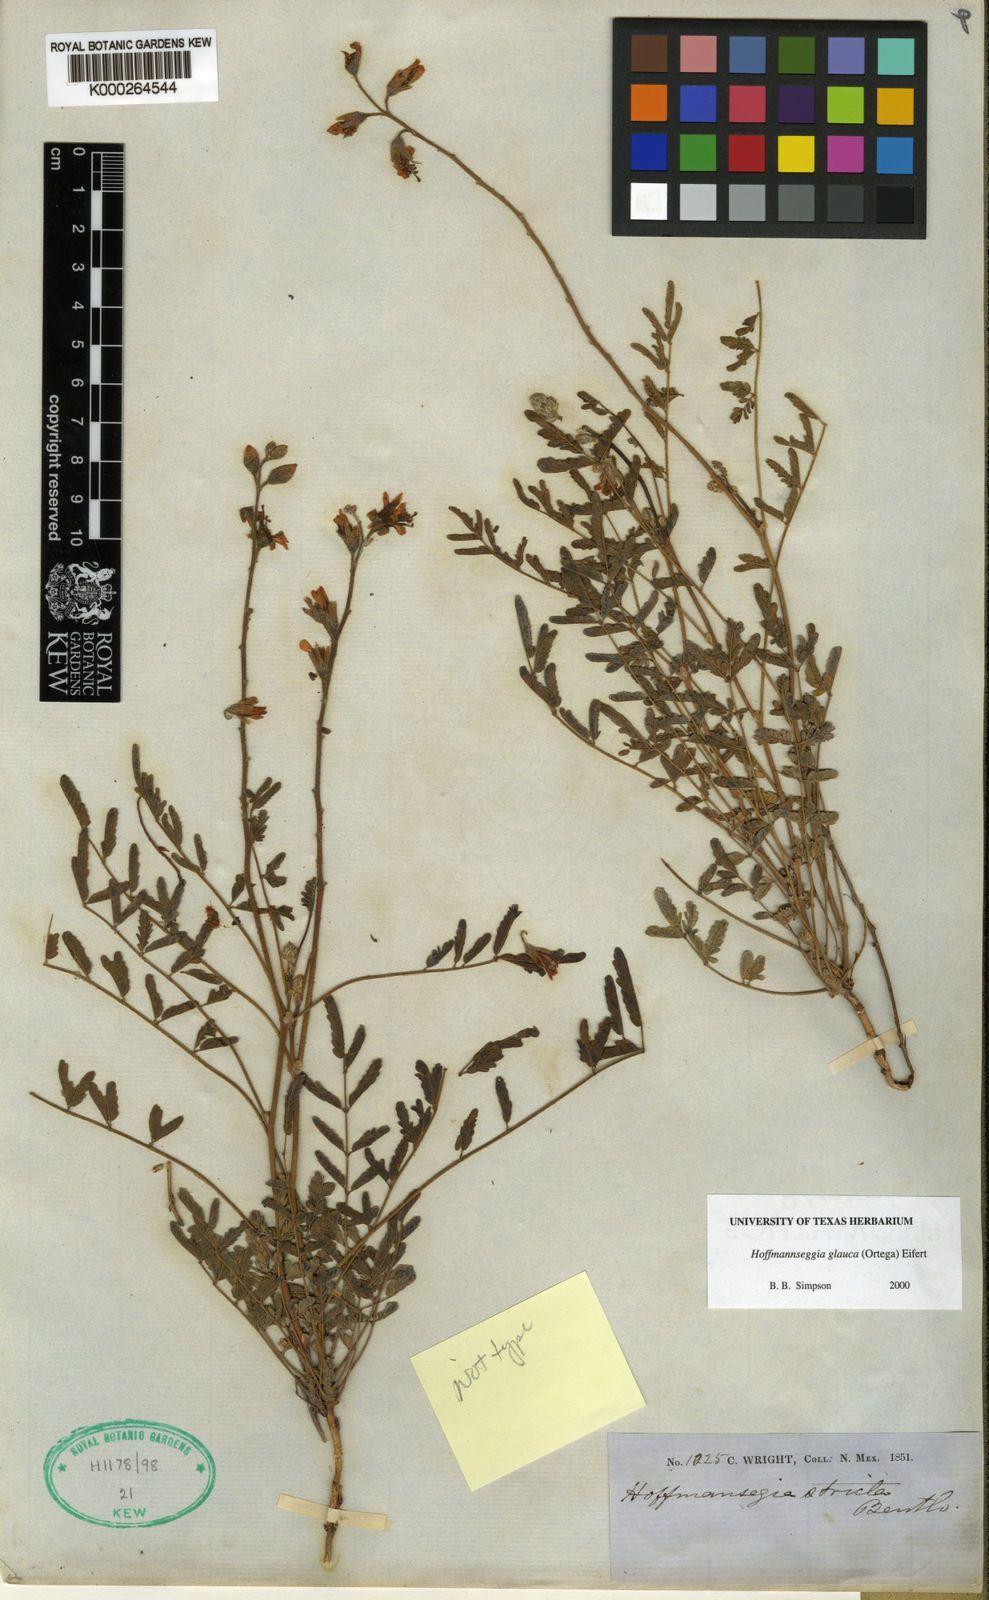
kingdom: Plantae
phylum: Tracheophyta
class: Magnoliopsida
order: Fabales
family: Fabaceae
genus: Hoffmannseggia
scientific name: Hoffmannseggia glauca
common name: Pignut
